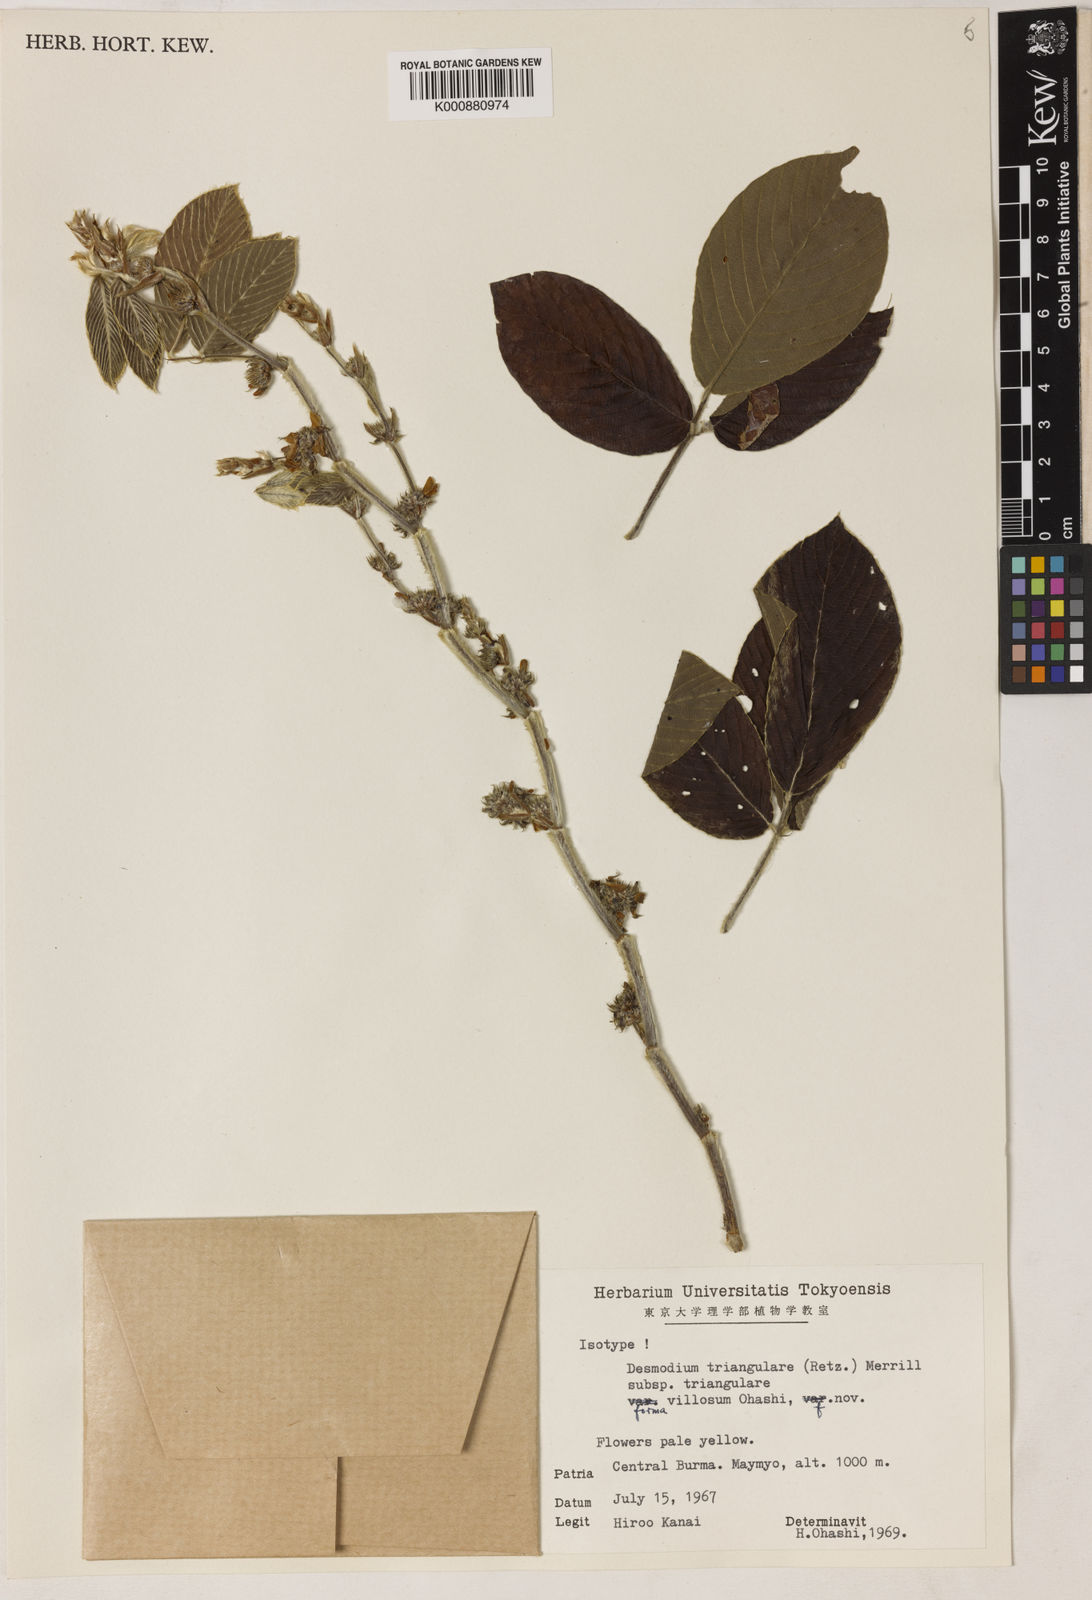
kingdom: Plantae
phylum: Tracheophyta
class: Magnoliopsida
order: Fabales
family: Fabaceae
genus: Dendrolobium
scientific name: Dendrolobium triangulare
